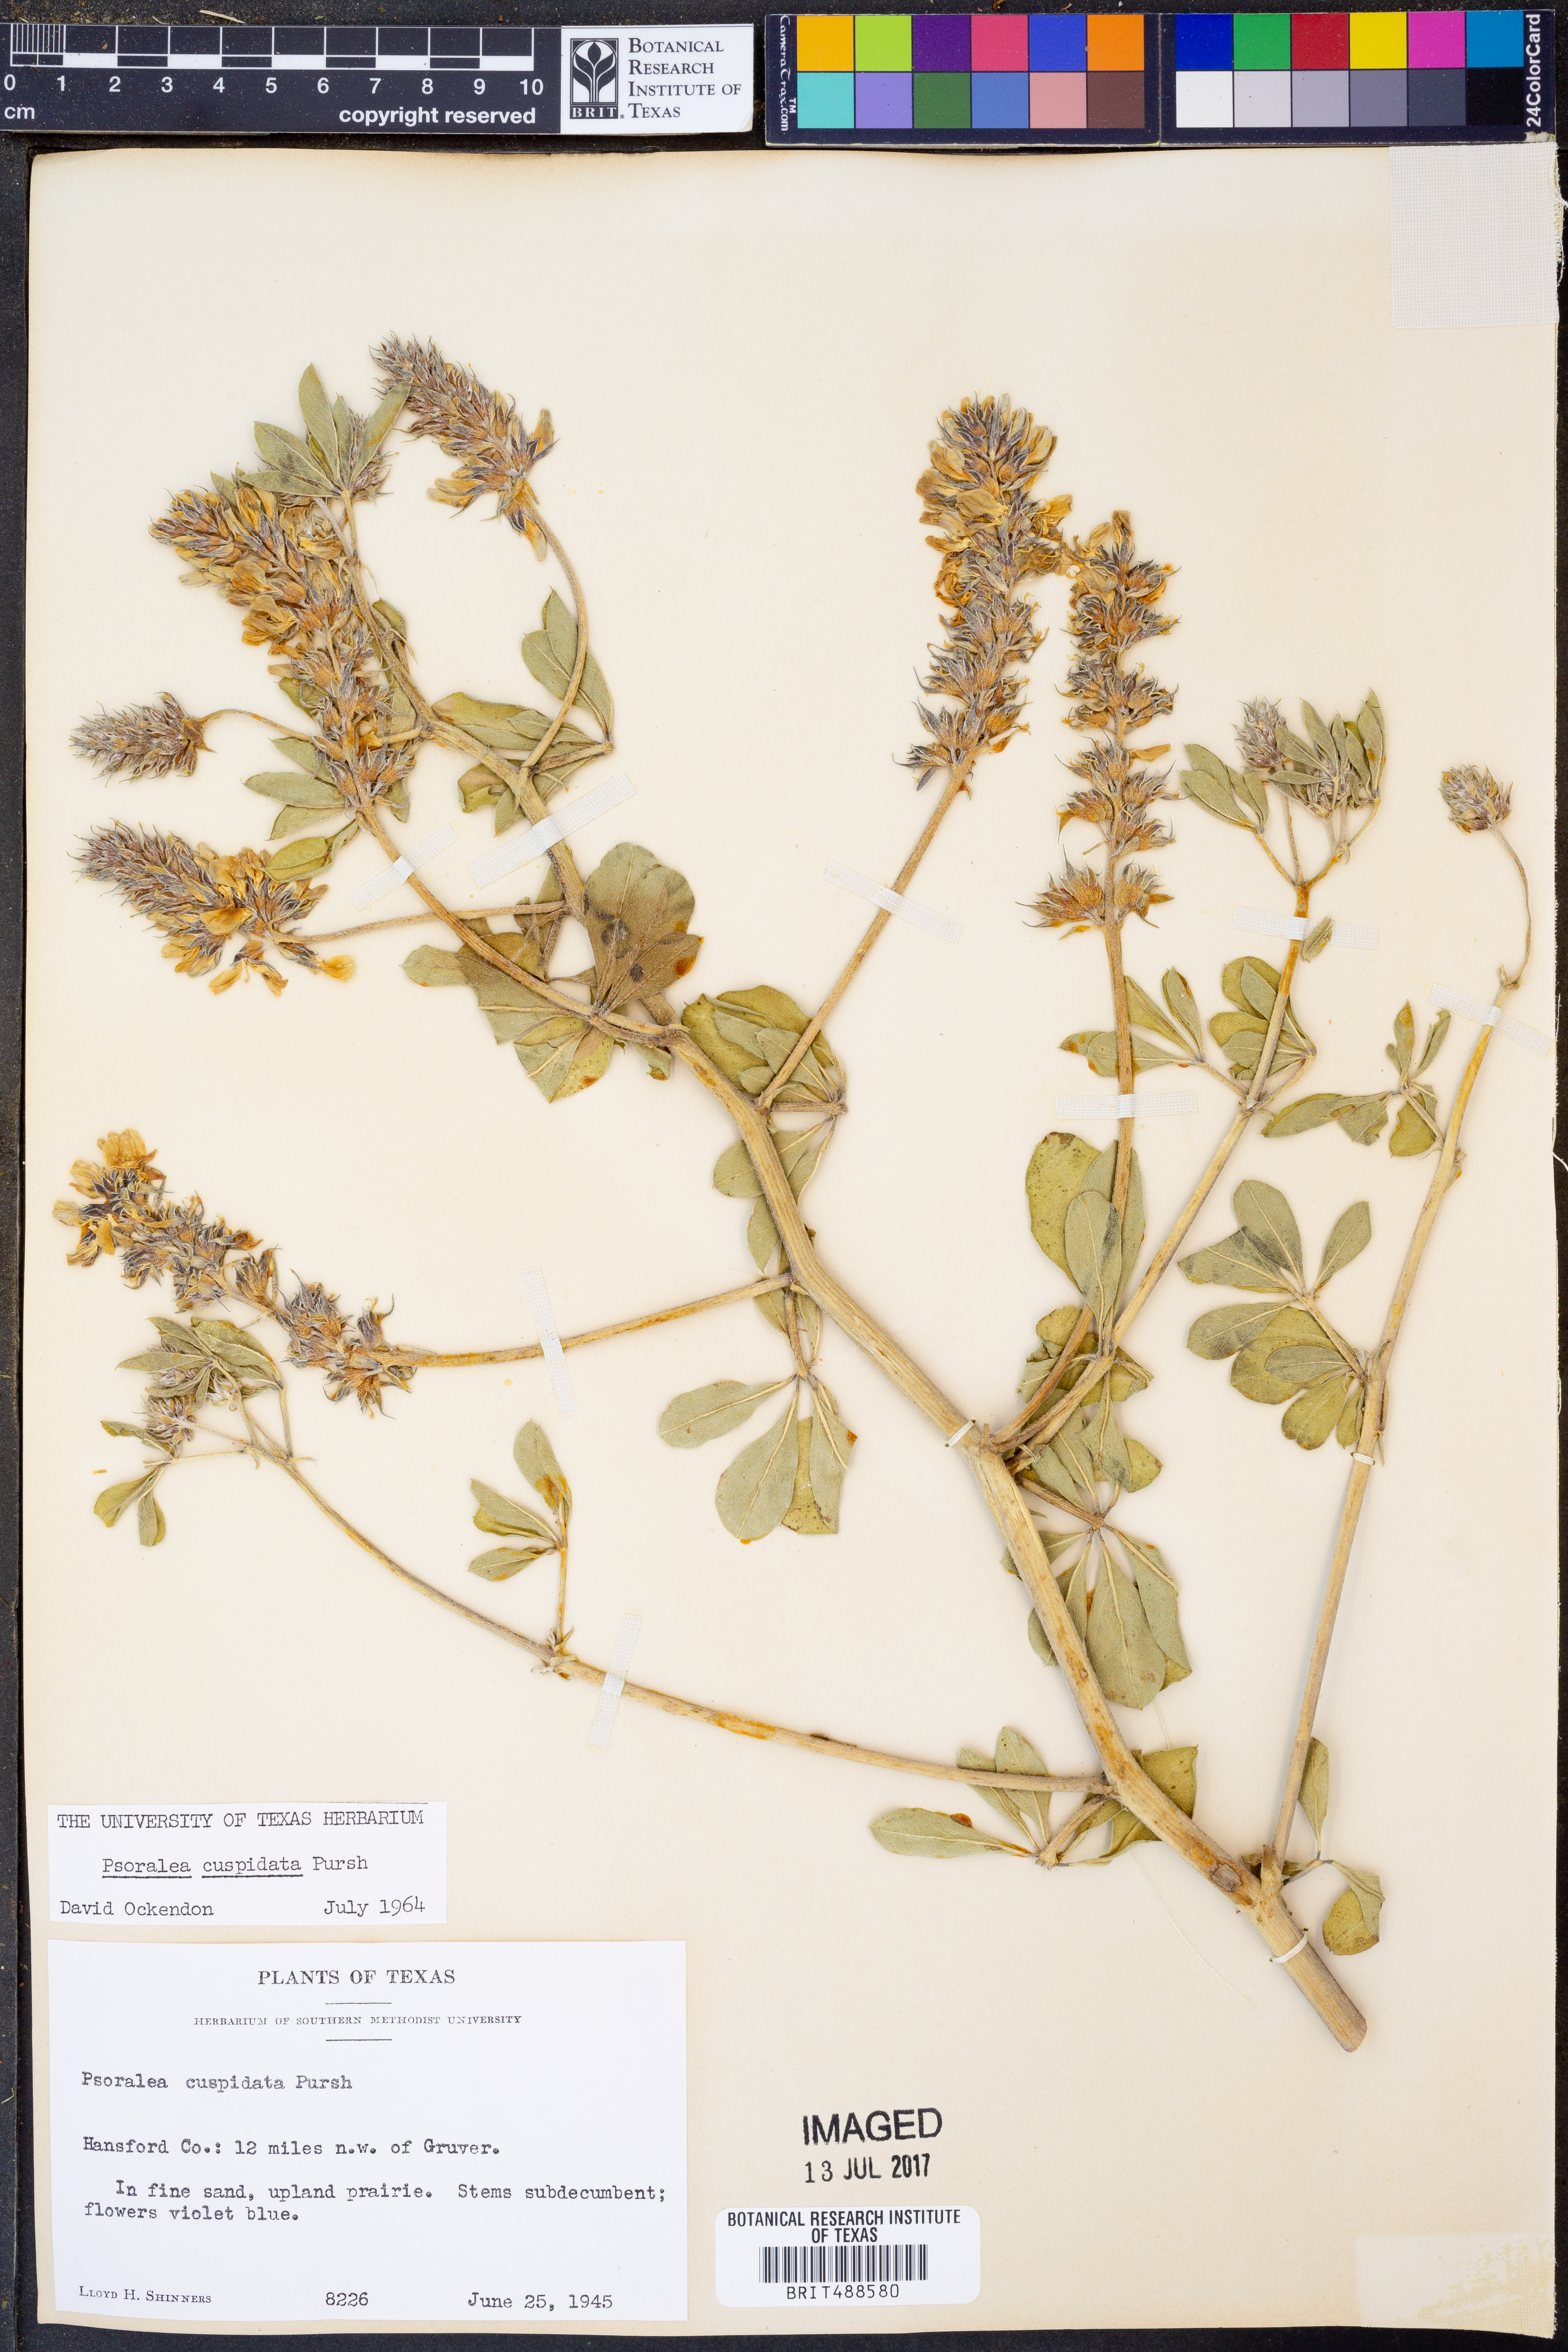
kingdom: Plantae
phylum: Tracheophyta
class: Magnoliopsida
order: Fabales
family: Fabaceae
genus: Pediomelum
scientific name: Pediomelum cuspidatum
